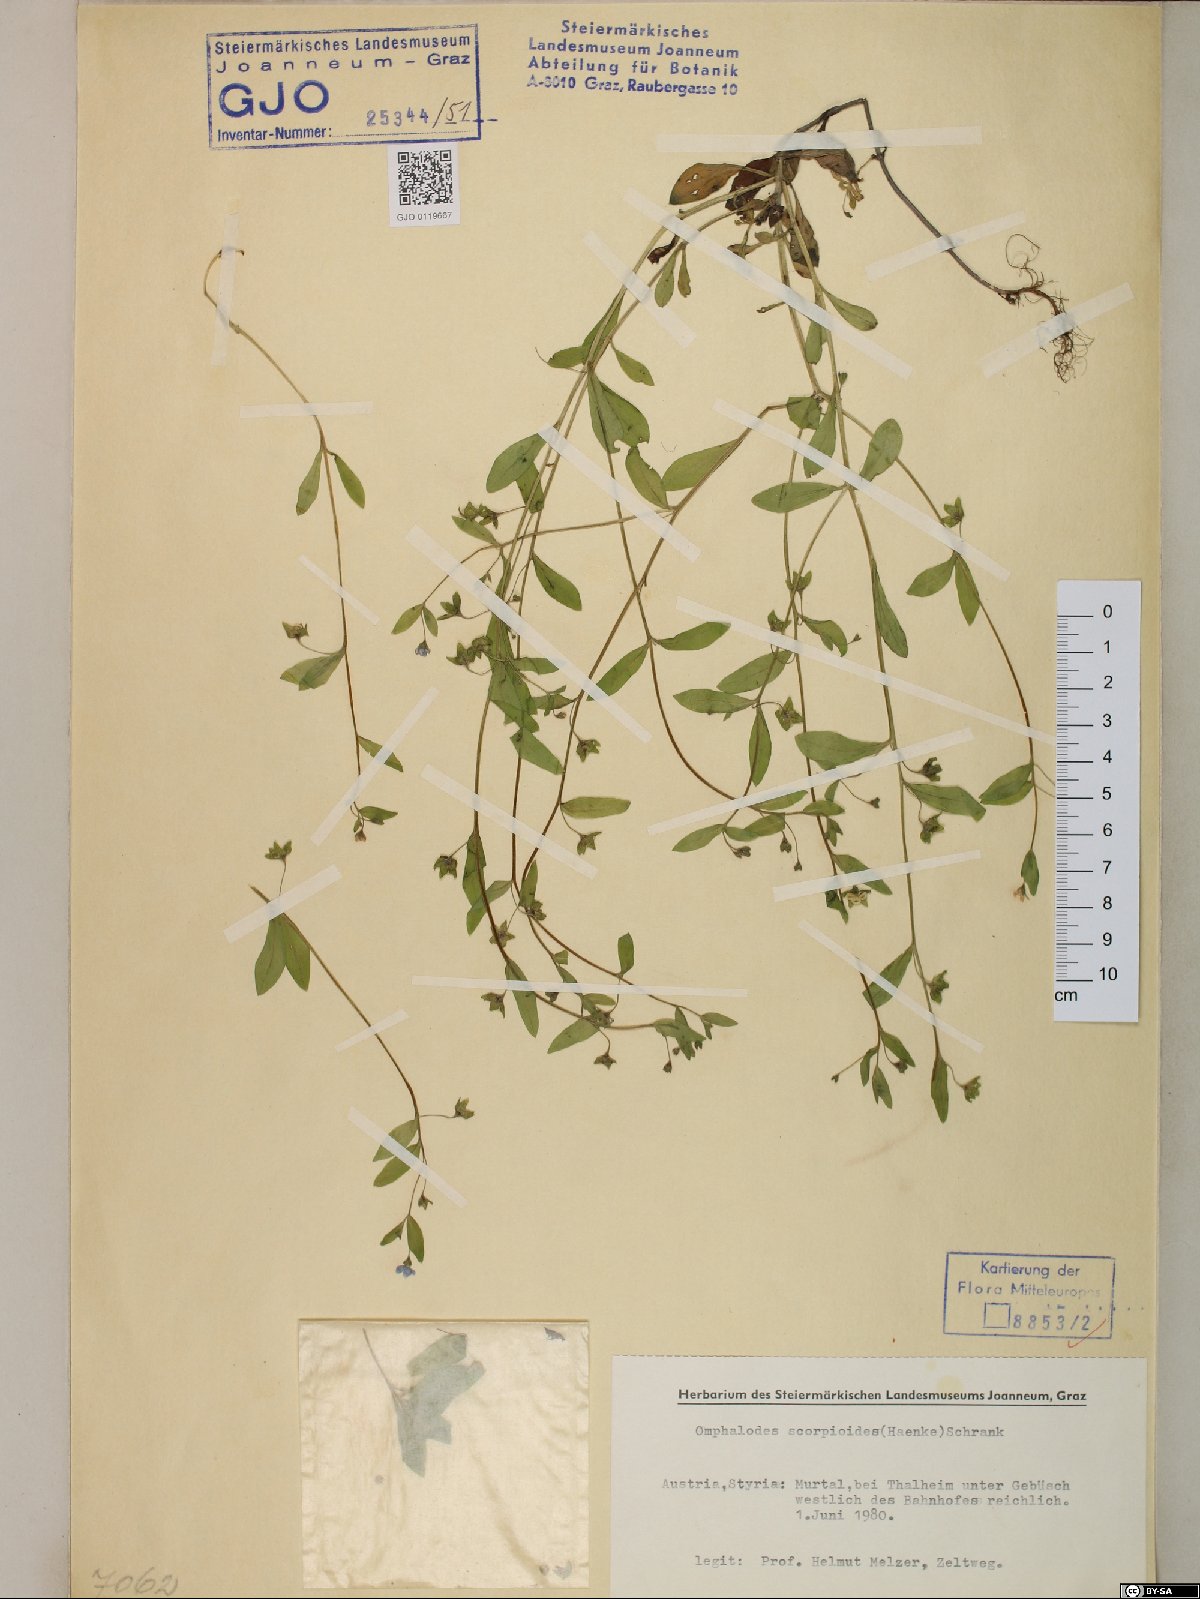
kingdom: Plantae
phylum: Tracheophyta
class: Magnoliopsida
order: Boraginales
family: Boraginaceae
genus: Memoremea
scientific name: Memoremea scorpioides
